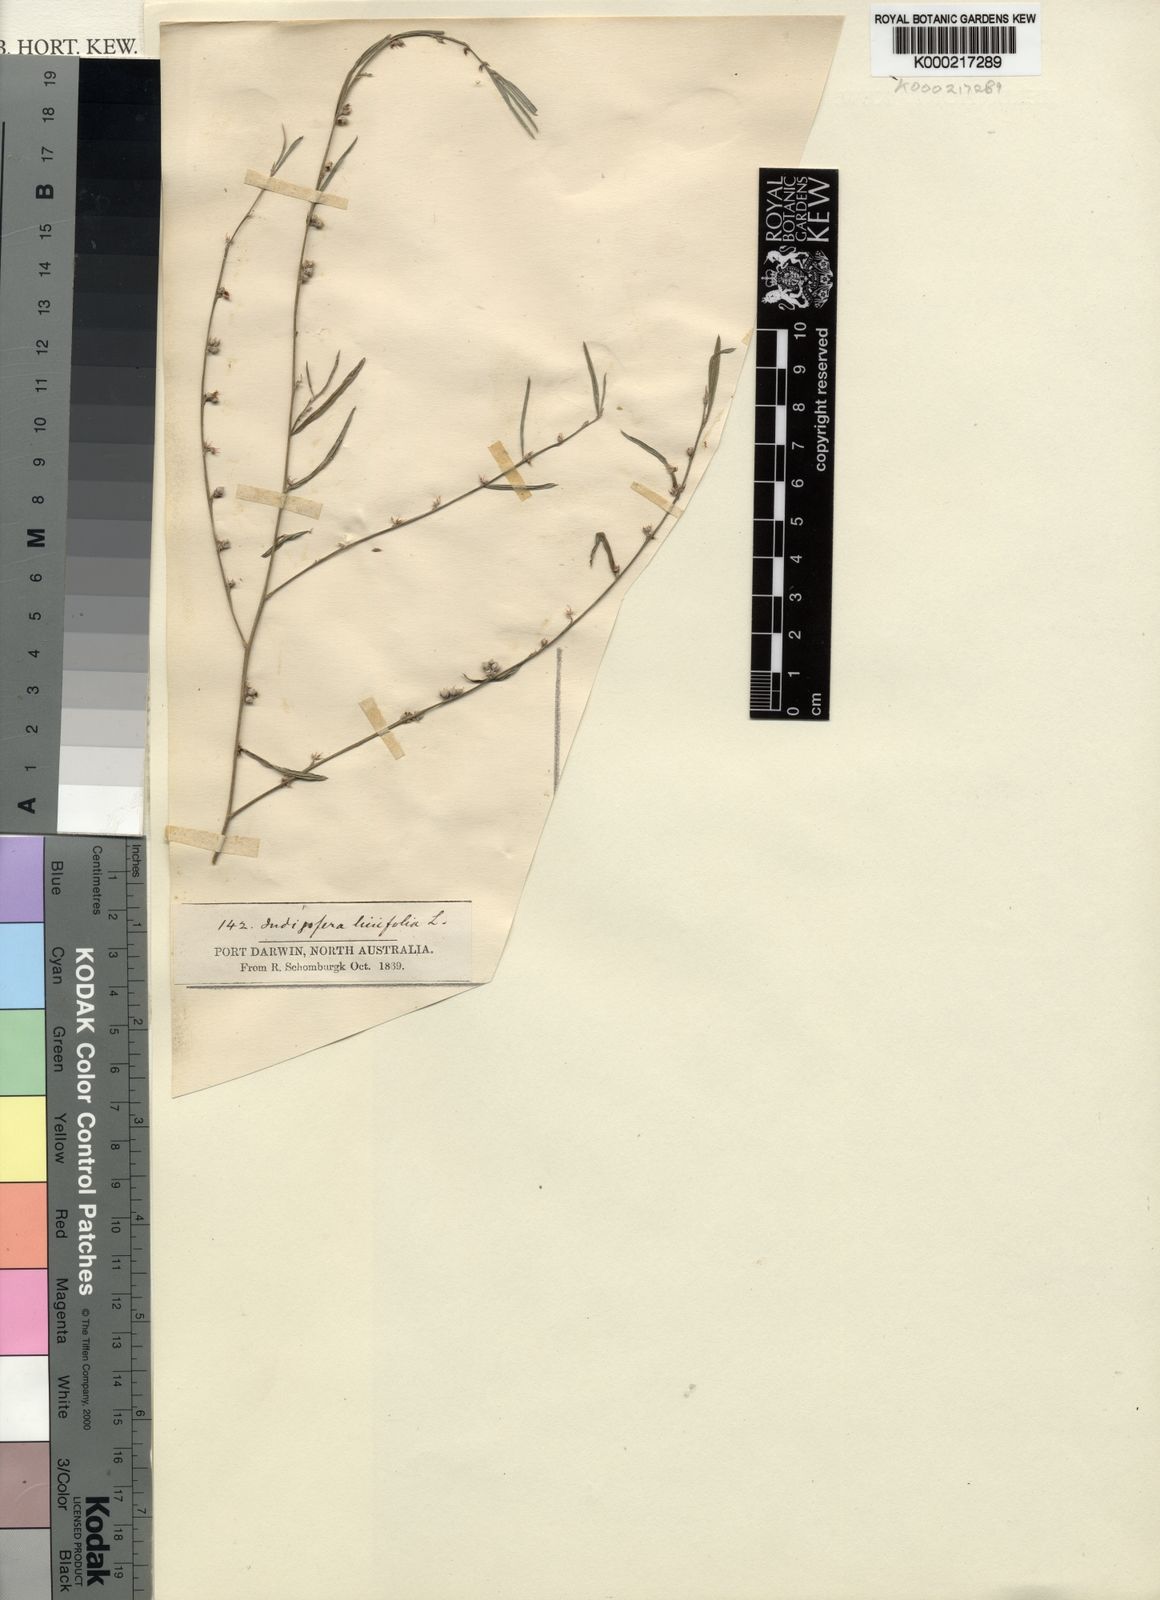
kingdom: Plantae
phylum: Tracheophyta
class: Magnoliopsida
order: Fabales
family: Fabaceae
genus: Indigofera
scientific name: Indigofera linifolia
